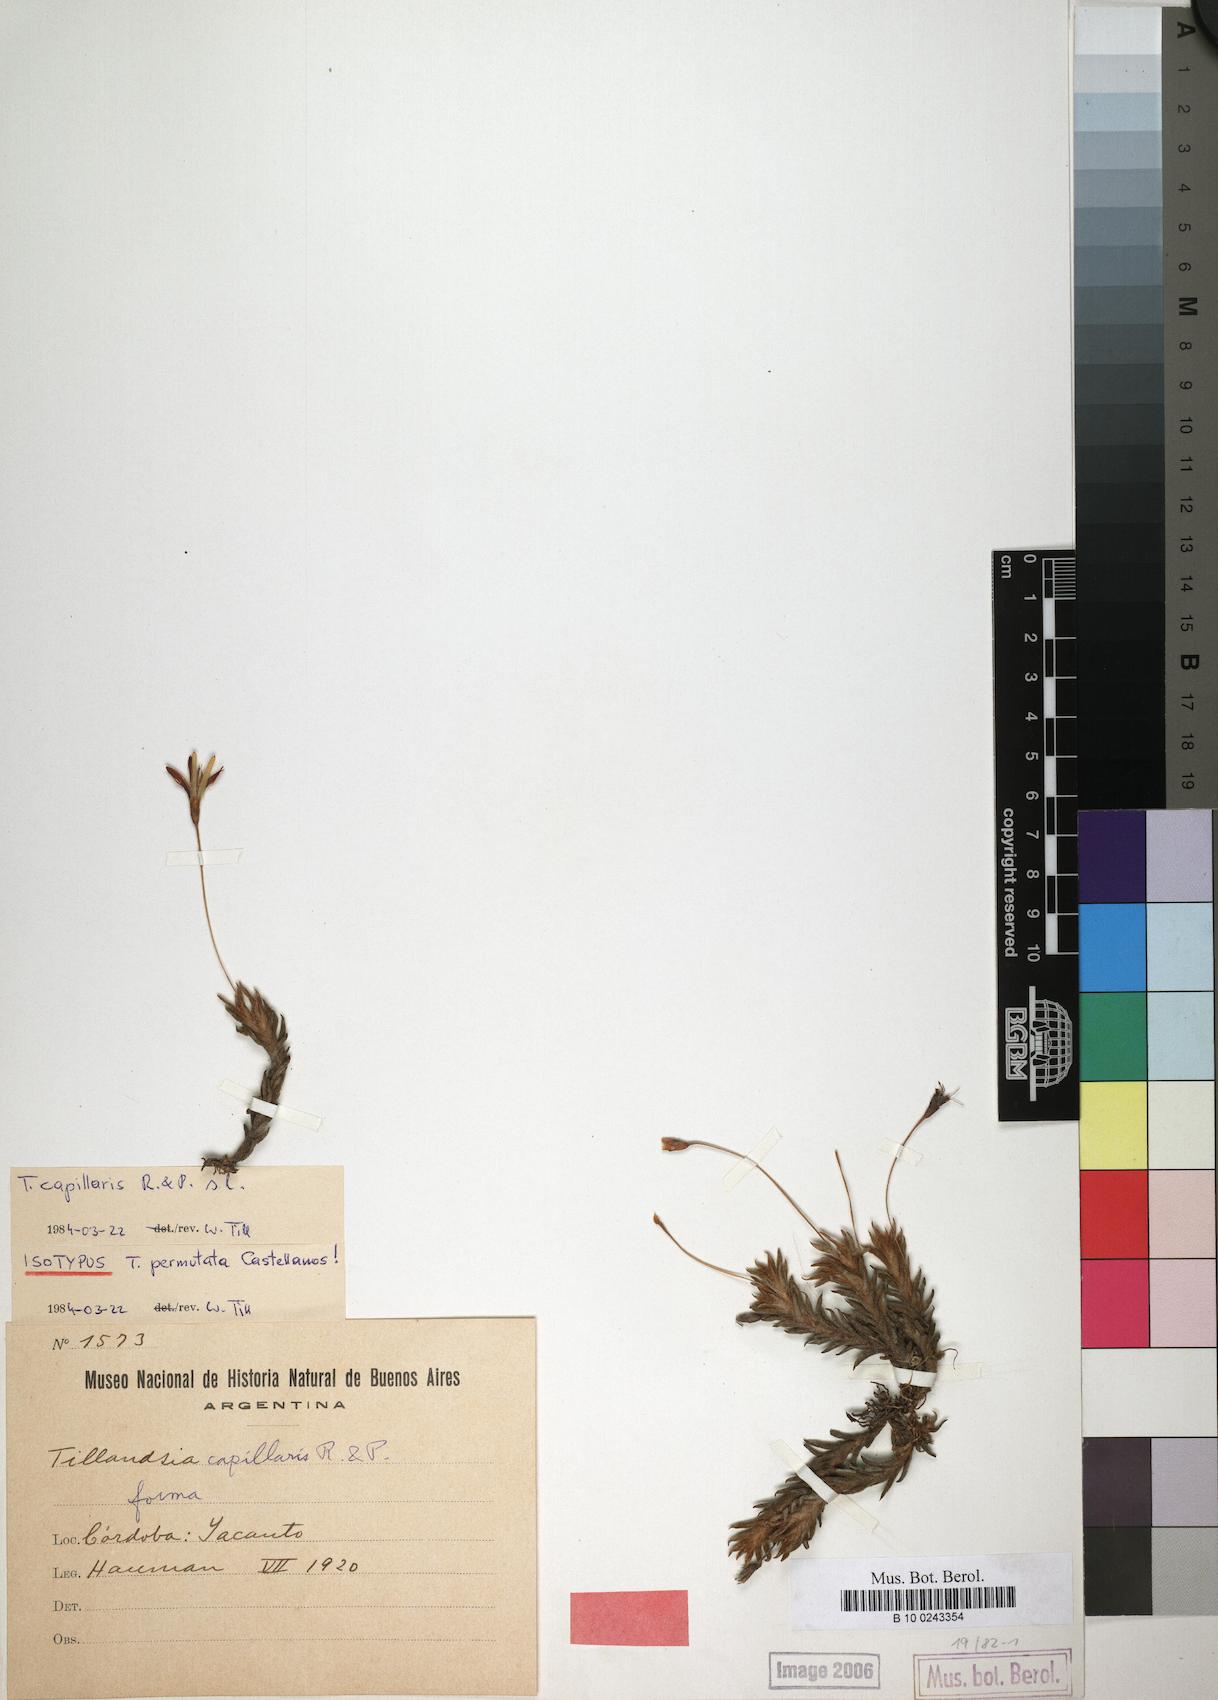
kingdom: Plantae
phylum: Tracheophyta
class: Liliopsida
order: Poales
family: Bromeliaceae
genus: Tillandsia
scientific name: Tillandsia capillaris
